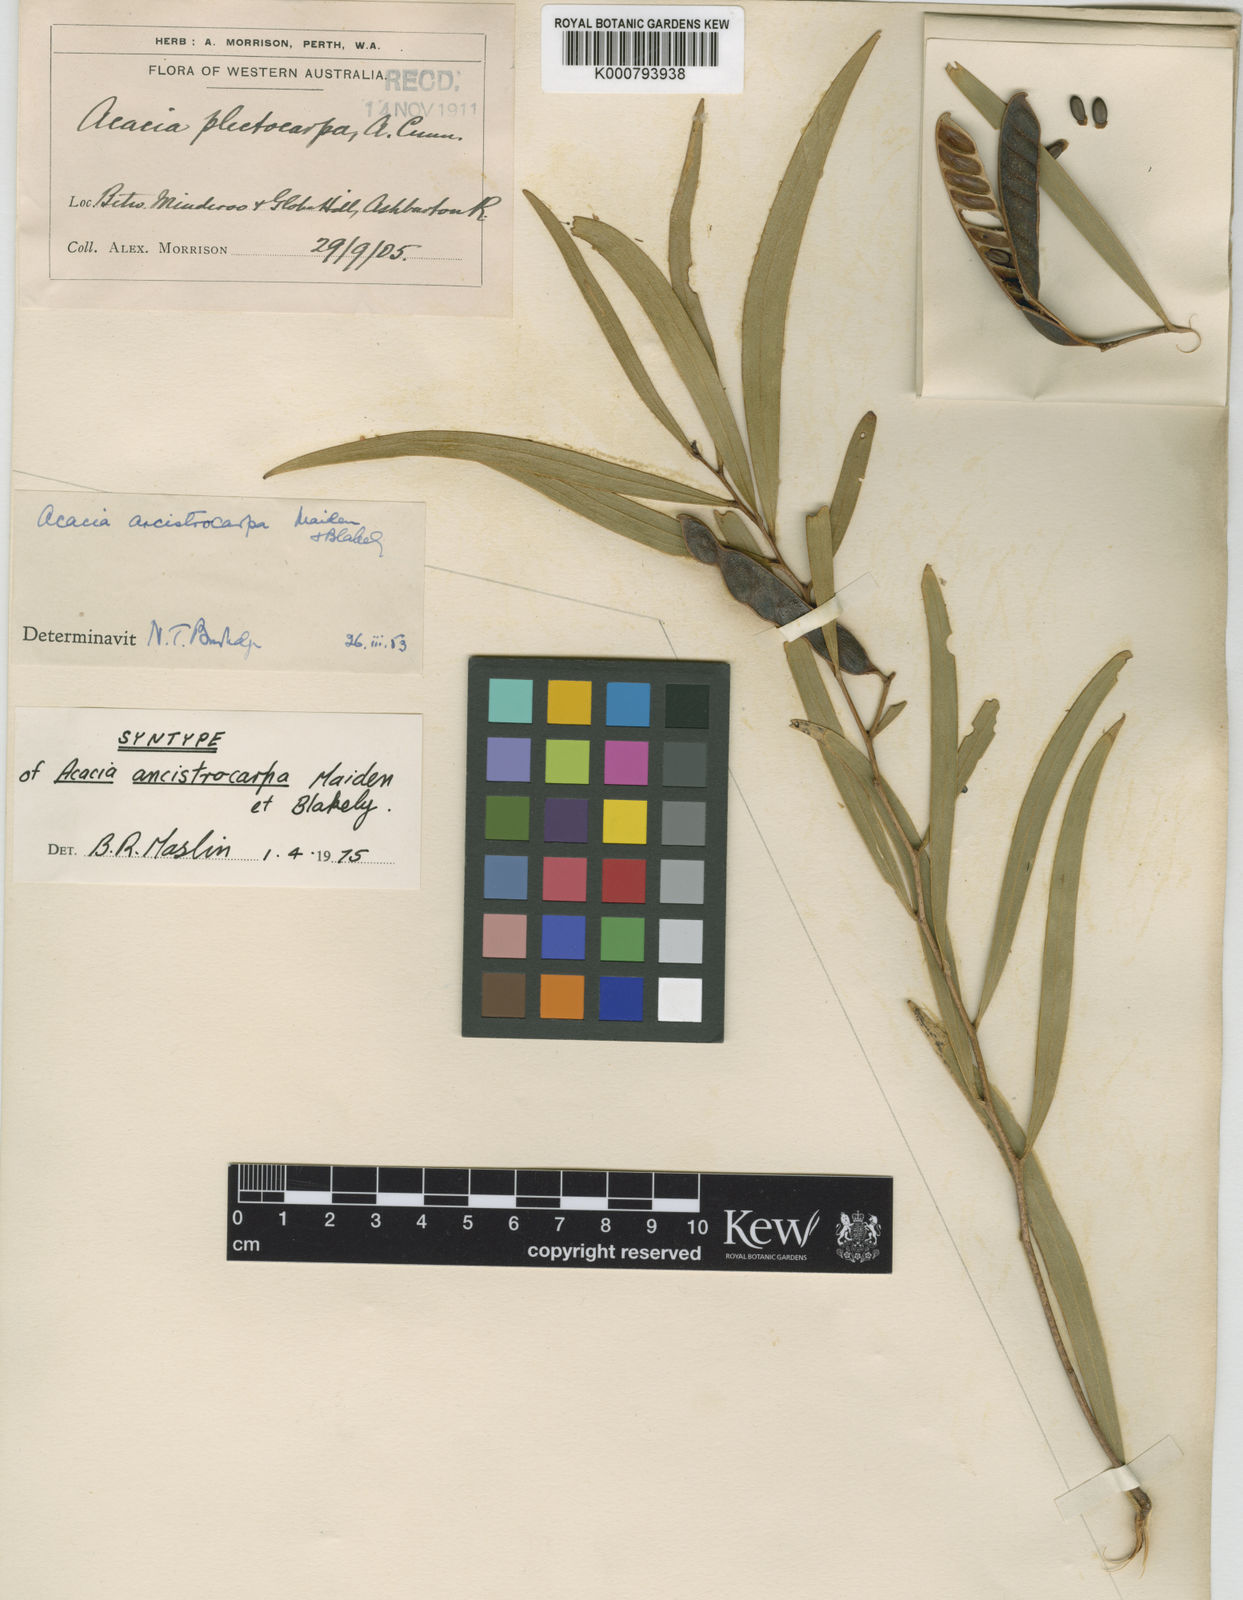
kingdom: Plantae
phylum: Tracheophyta
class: Magnoliopsida
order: Fabales
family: Fabaceae
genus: Acacia
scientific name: Acacia ancistrocarpa
